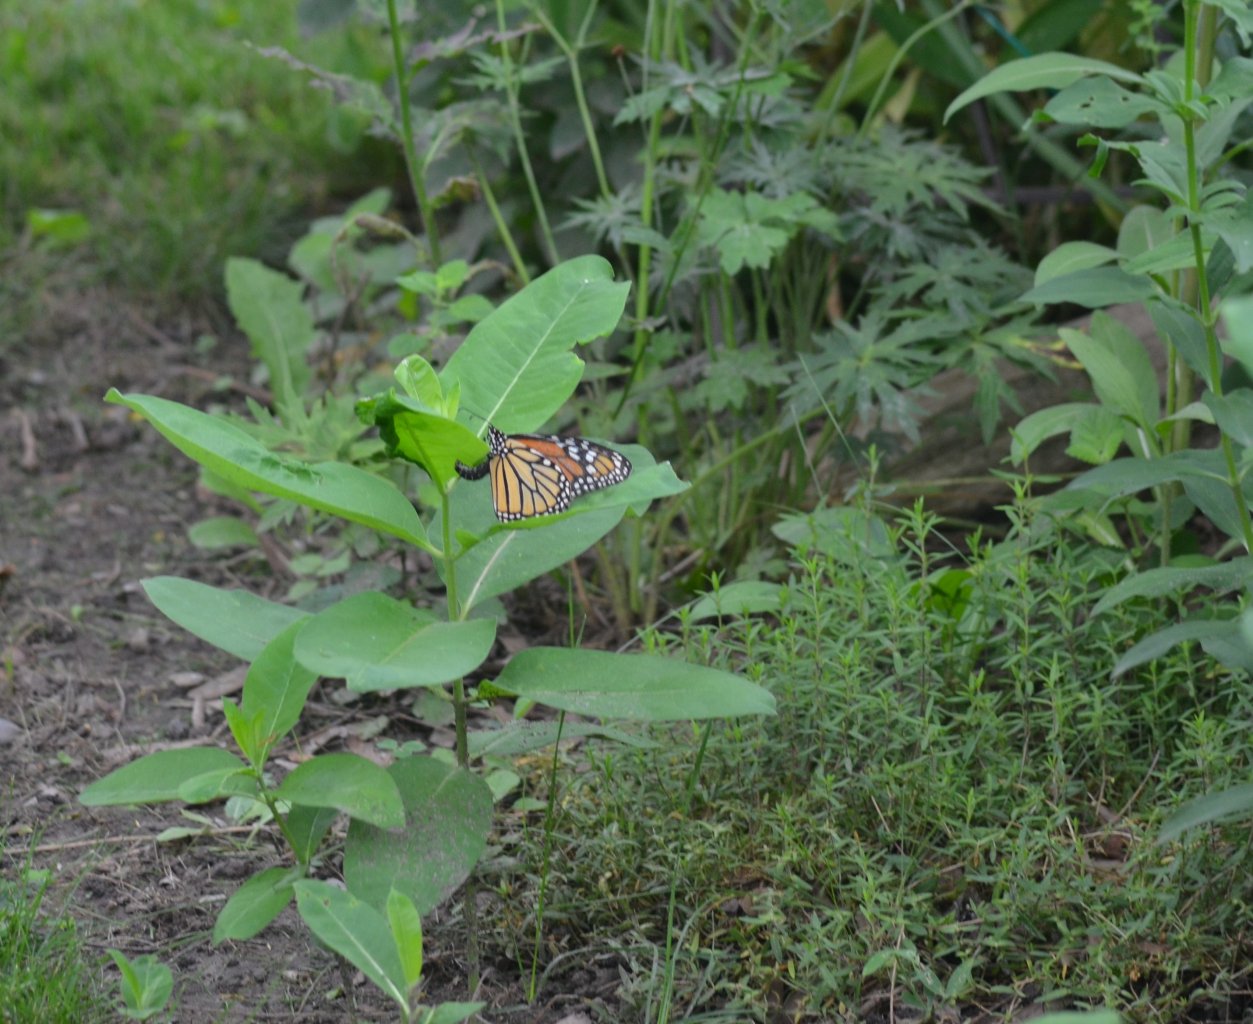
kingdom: Animalia
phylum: Arthropoda
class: Insecta
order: Lepidoptera
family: Nymphalidae
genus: Danaus
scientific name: Danaus plexippus
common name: Monarch
